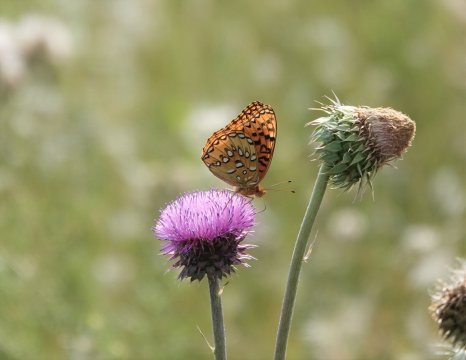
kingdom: Animalia
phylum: Arthropoda
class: Insecta
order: Lepidoptera
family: Nymphalidae
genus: Speyeria
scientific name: Speyeria nokomis
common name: Nokomis Fritillary
